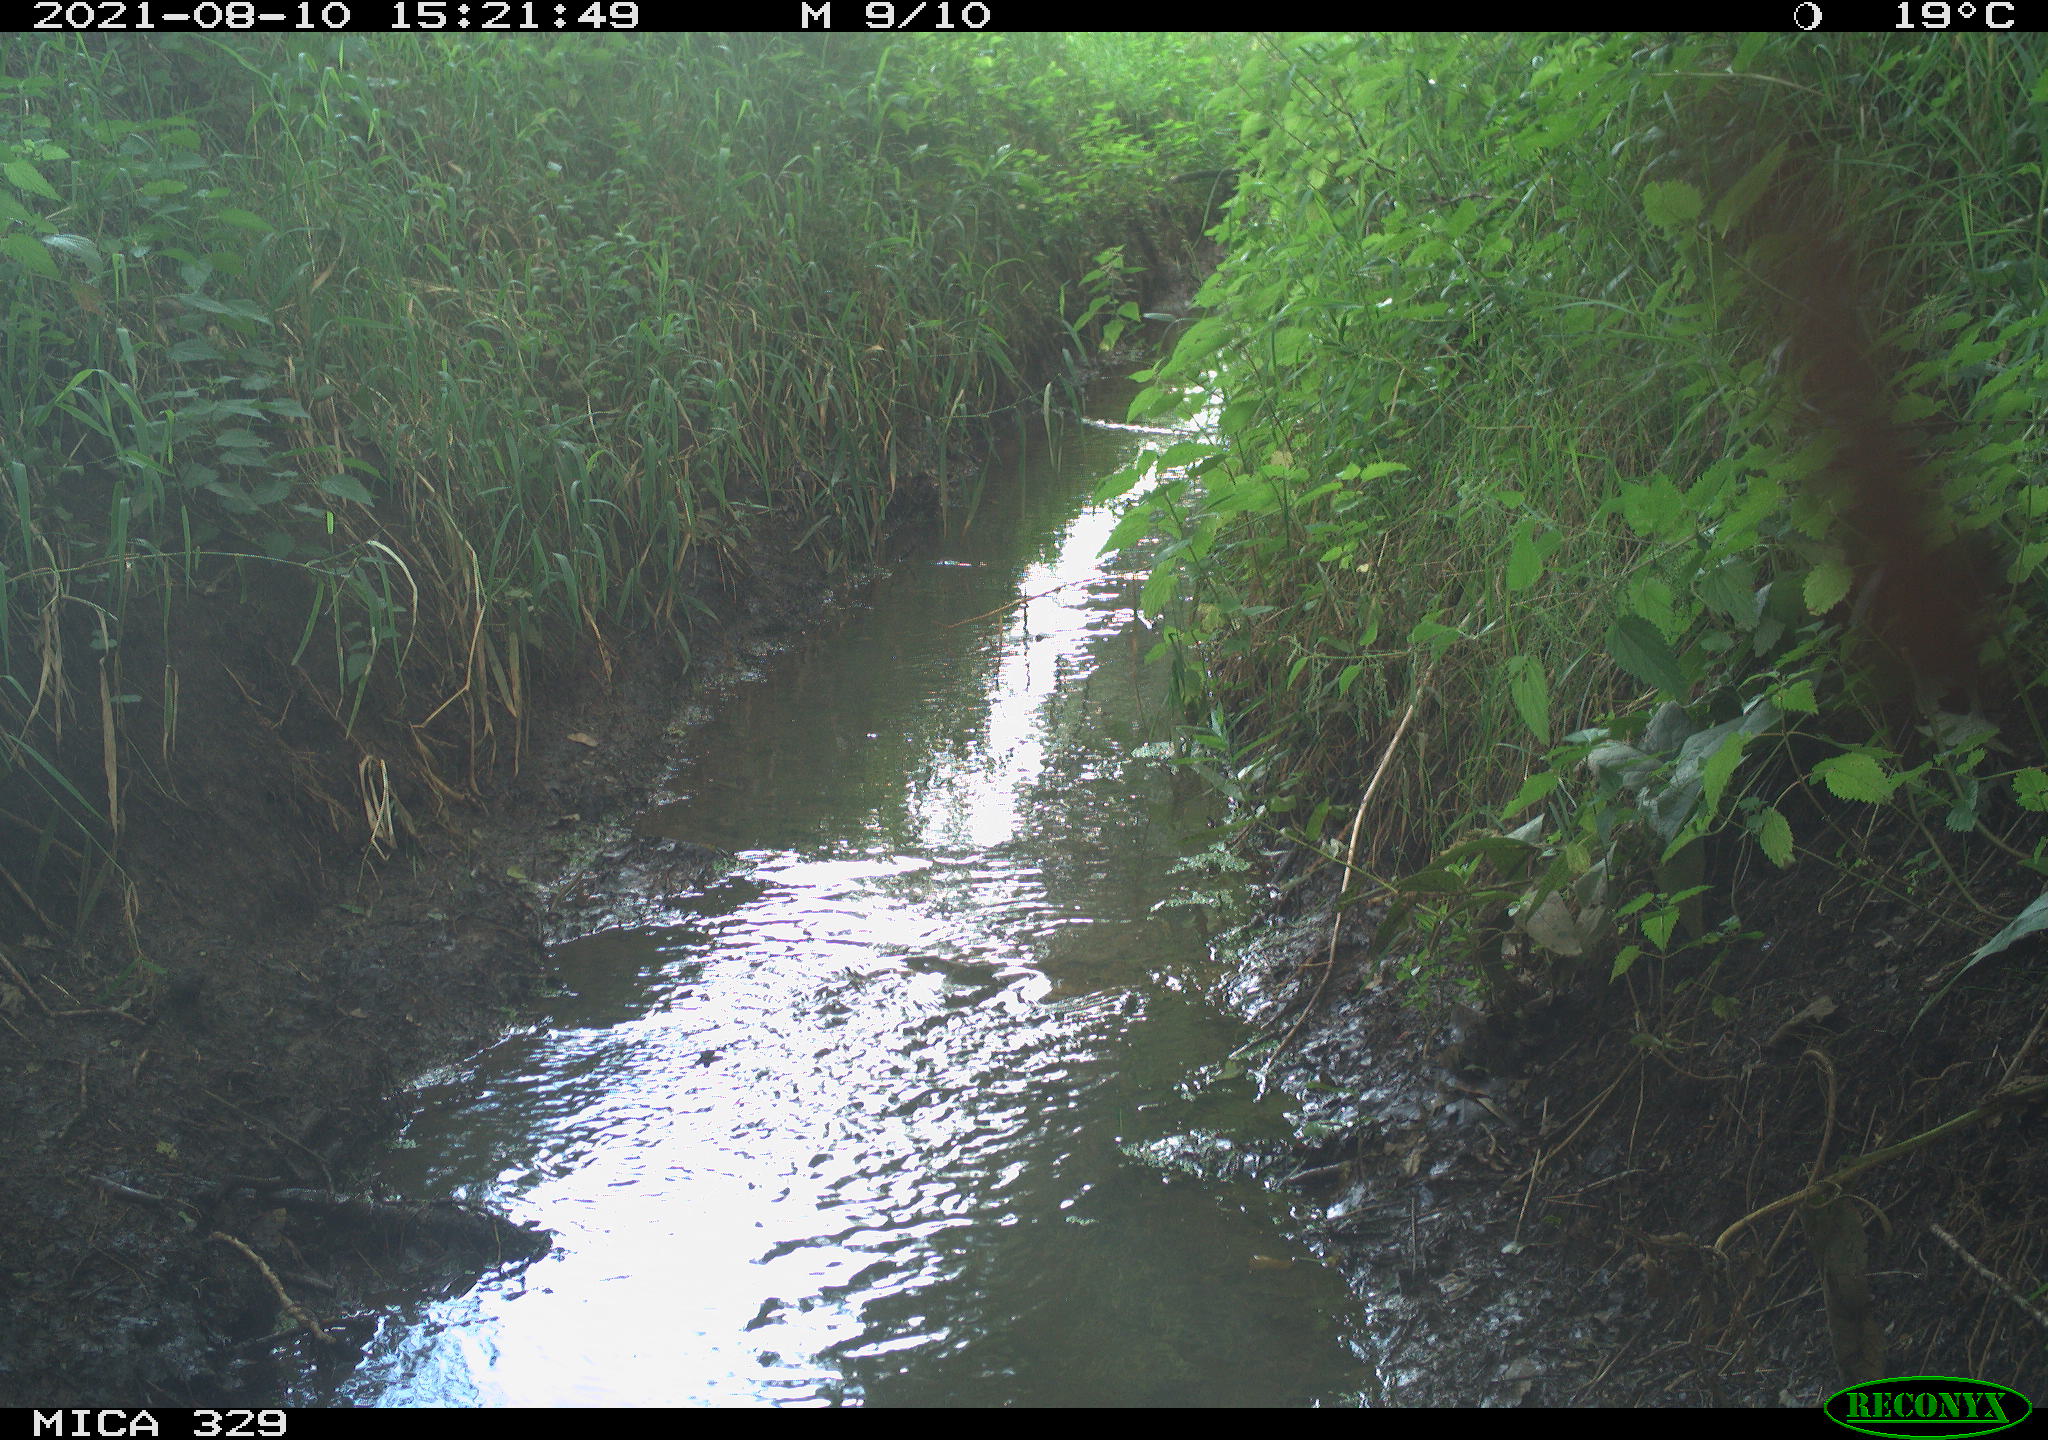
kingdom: Animalia
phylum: Chordata
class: Aves
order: Columbiformes
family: Columbidae
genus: Columba
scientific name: Columba palumbus
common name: Common wood pigeon
